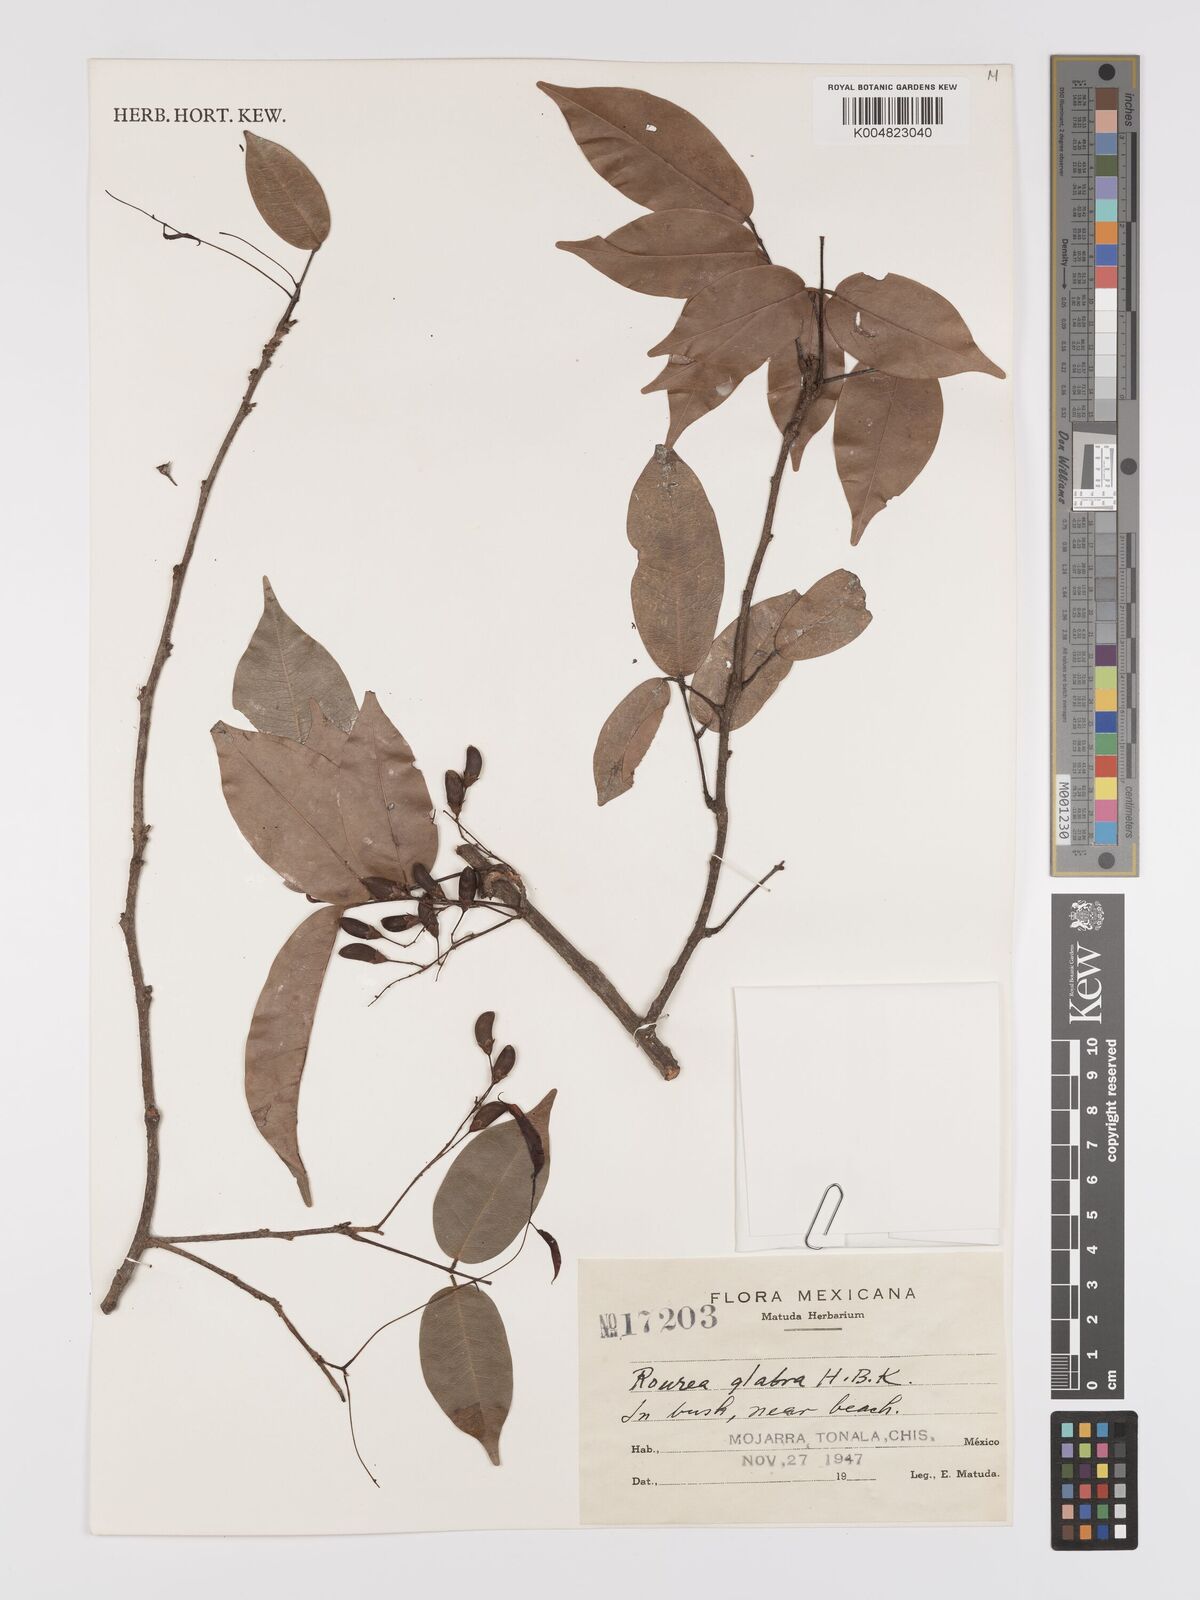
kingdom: Plantae
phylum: Tracheophyta
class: Magnoliopsida
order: Oxalidales
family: Connaraceae
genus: Rourea
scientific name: Rourea glabra
